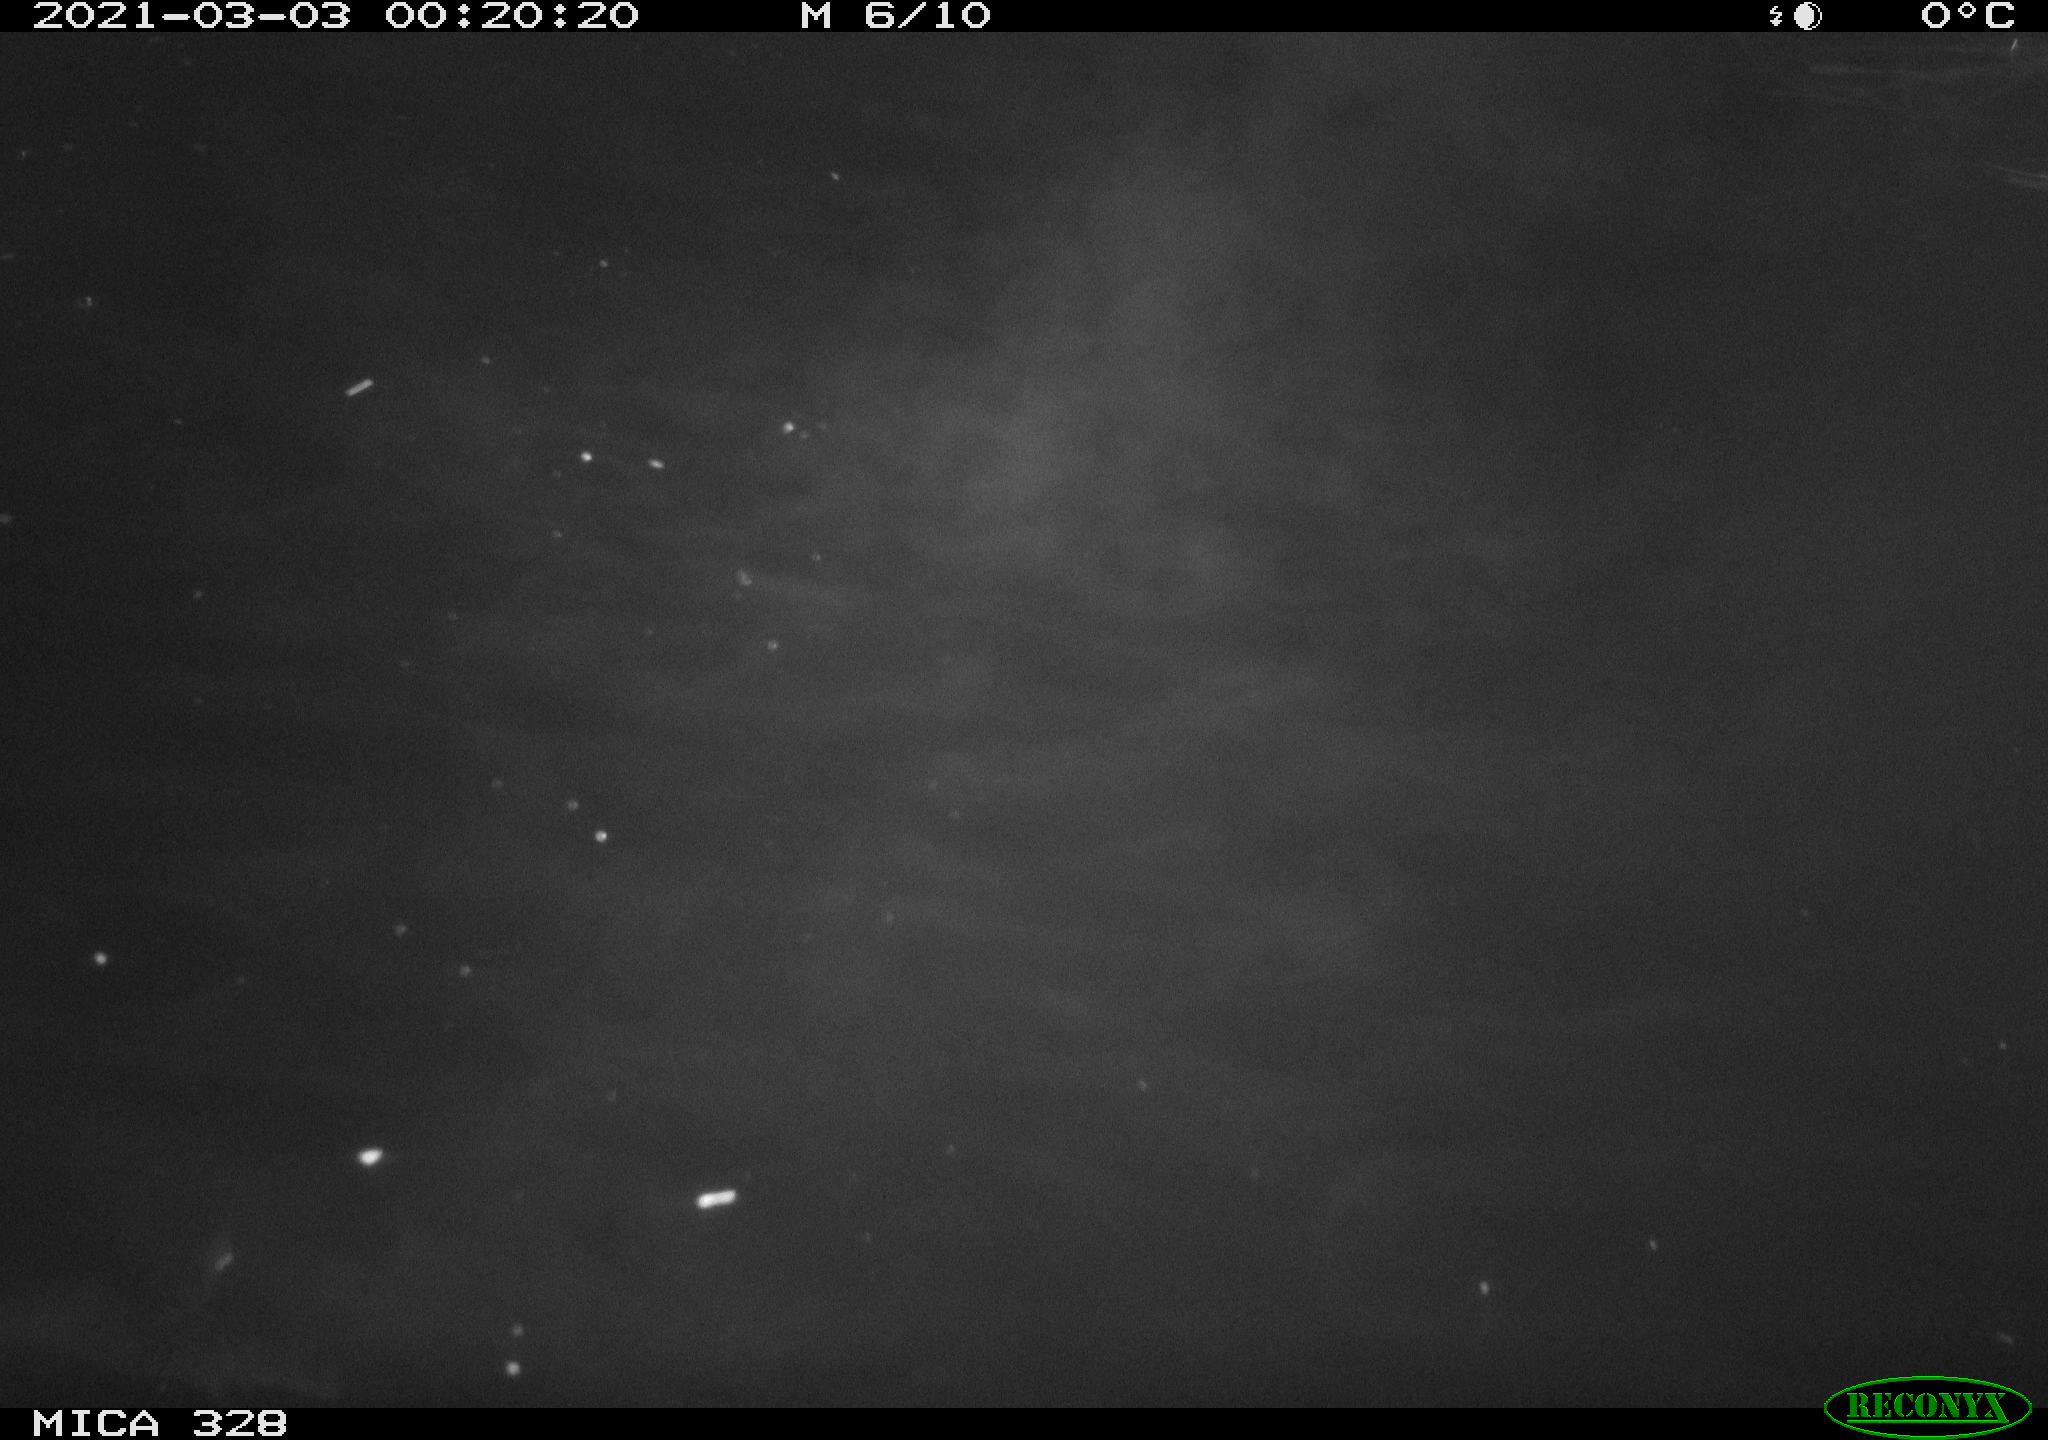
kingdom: Animalia
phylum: Chordata
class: Mammalia
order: Rodentia
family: Cricetidae
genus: Ondatra
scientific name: Ondatra zibethicus
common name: Muskrat
